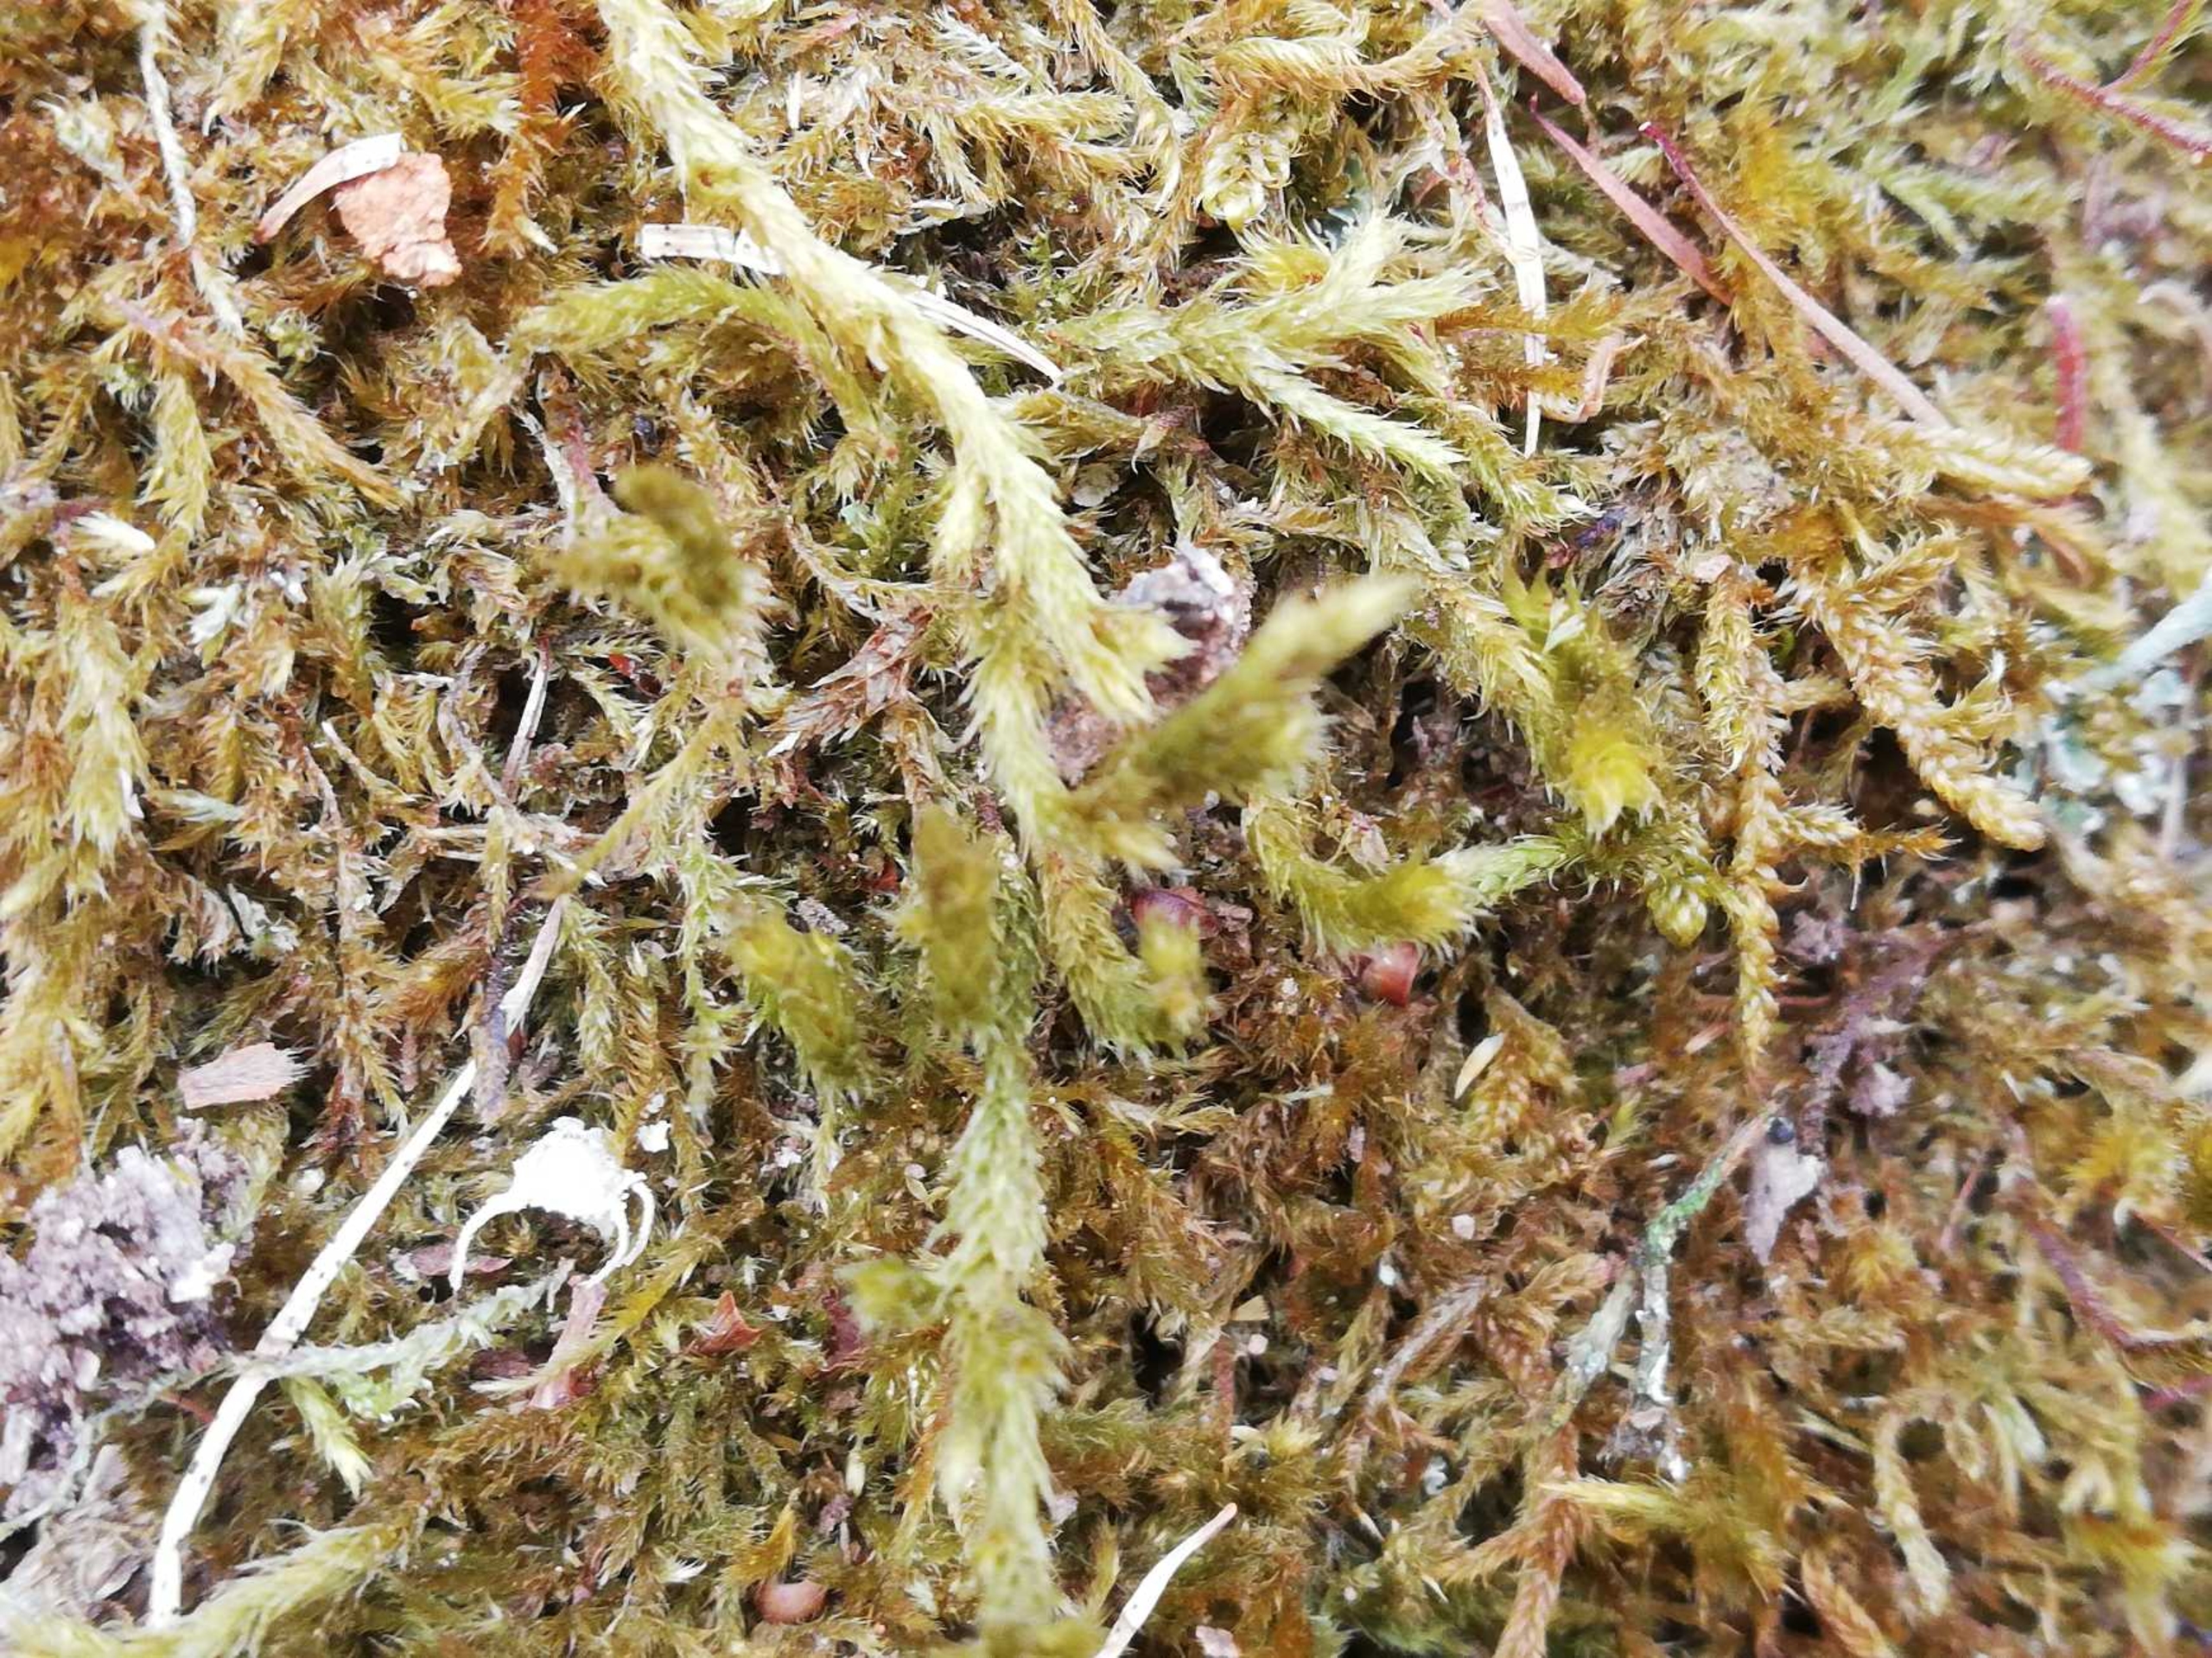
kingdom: Plantae
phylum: Bryophyta
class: Bryopsida
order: Hypnales
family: Antitrichiaceae
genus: Antitrichia
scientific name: Antitrichia curtipendula
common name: Åben krogtand
